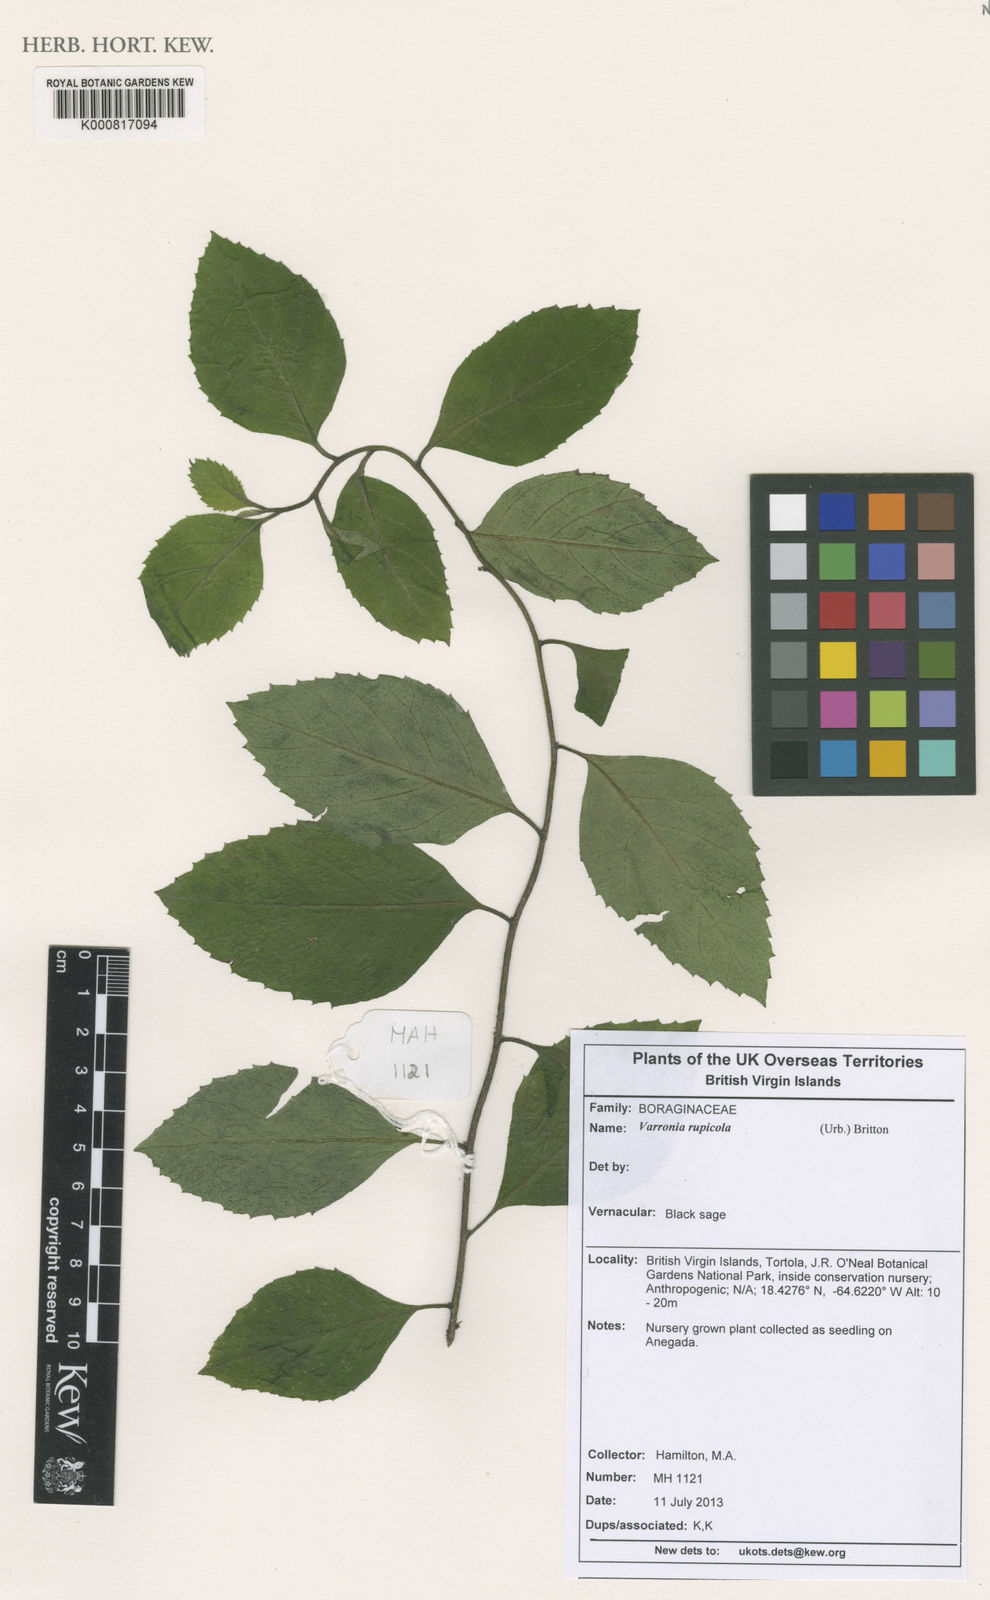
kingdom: Plantae
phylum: Tracheophyta
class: Magnoliopsida
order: Boraginales
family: Cordiaceae
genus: Varronia
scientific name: Varronia rupicola
